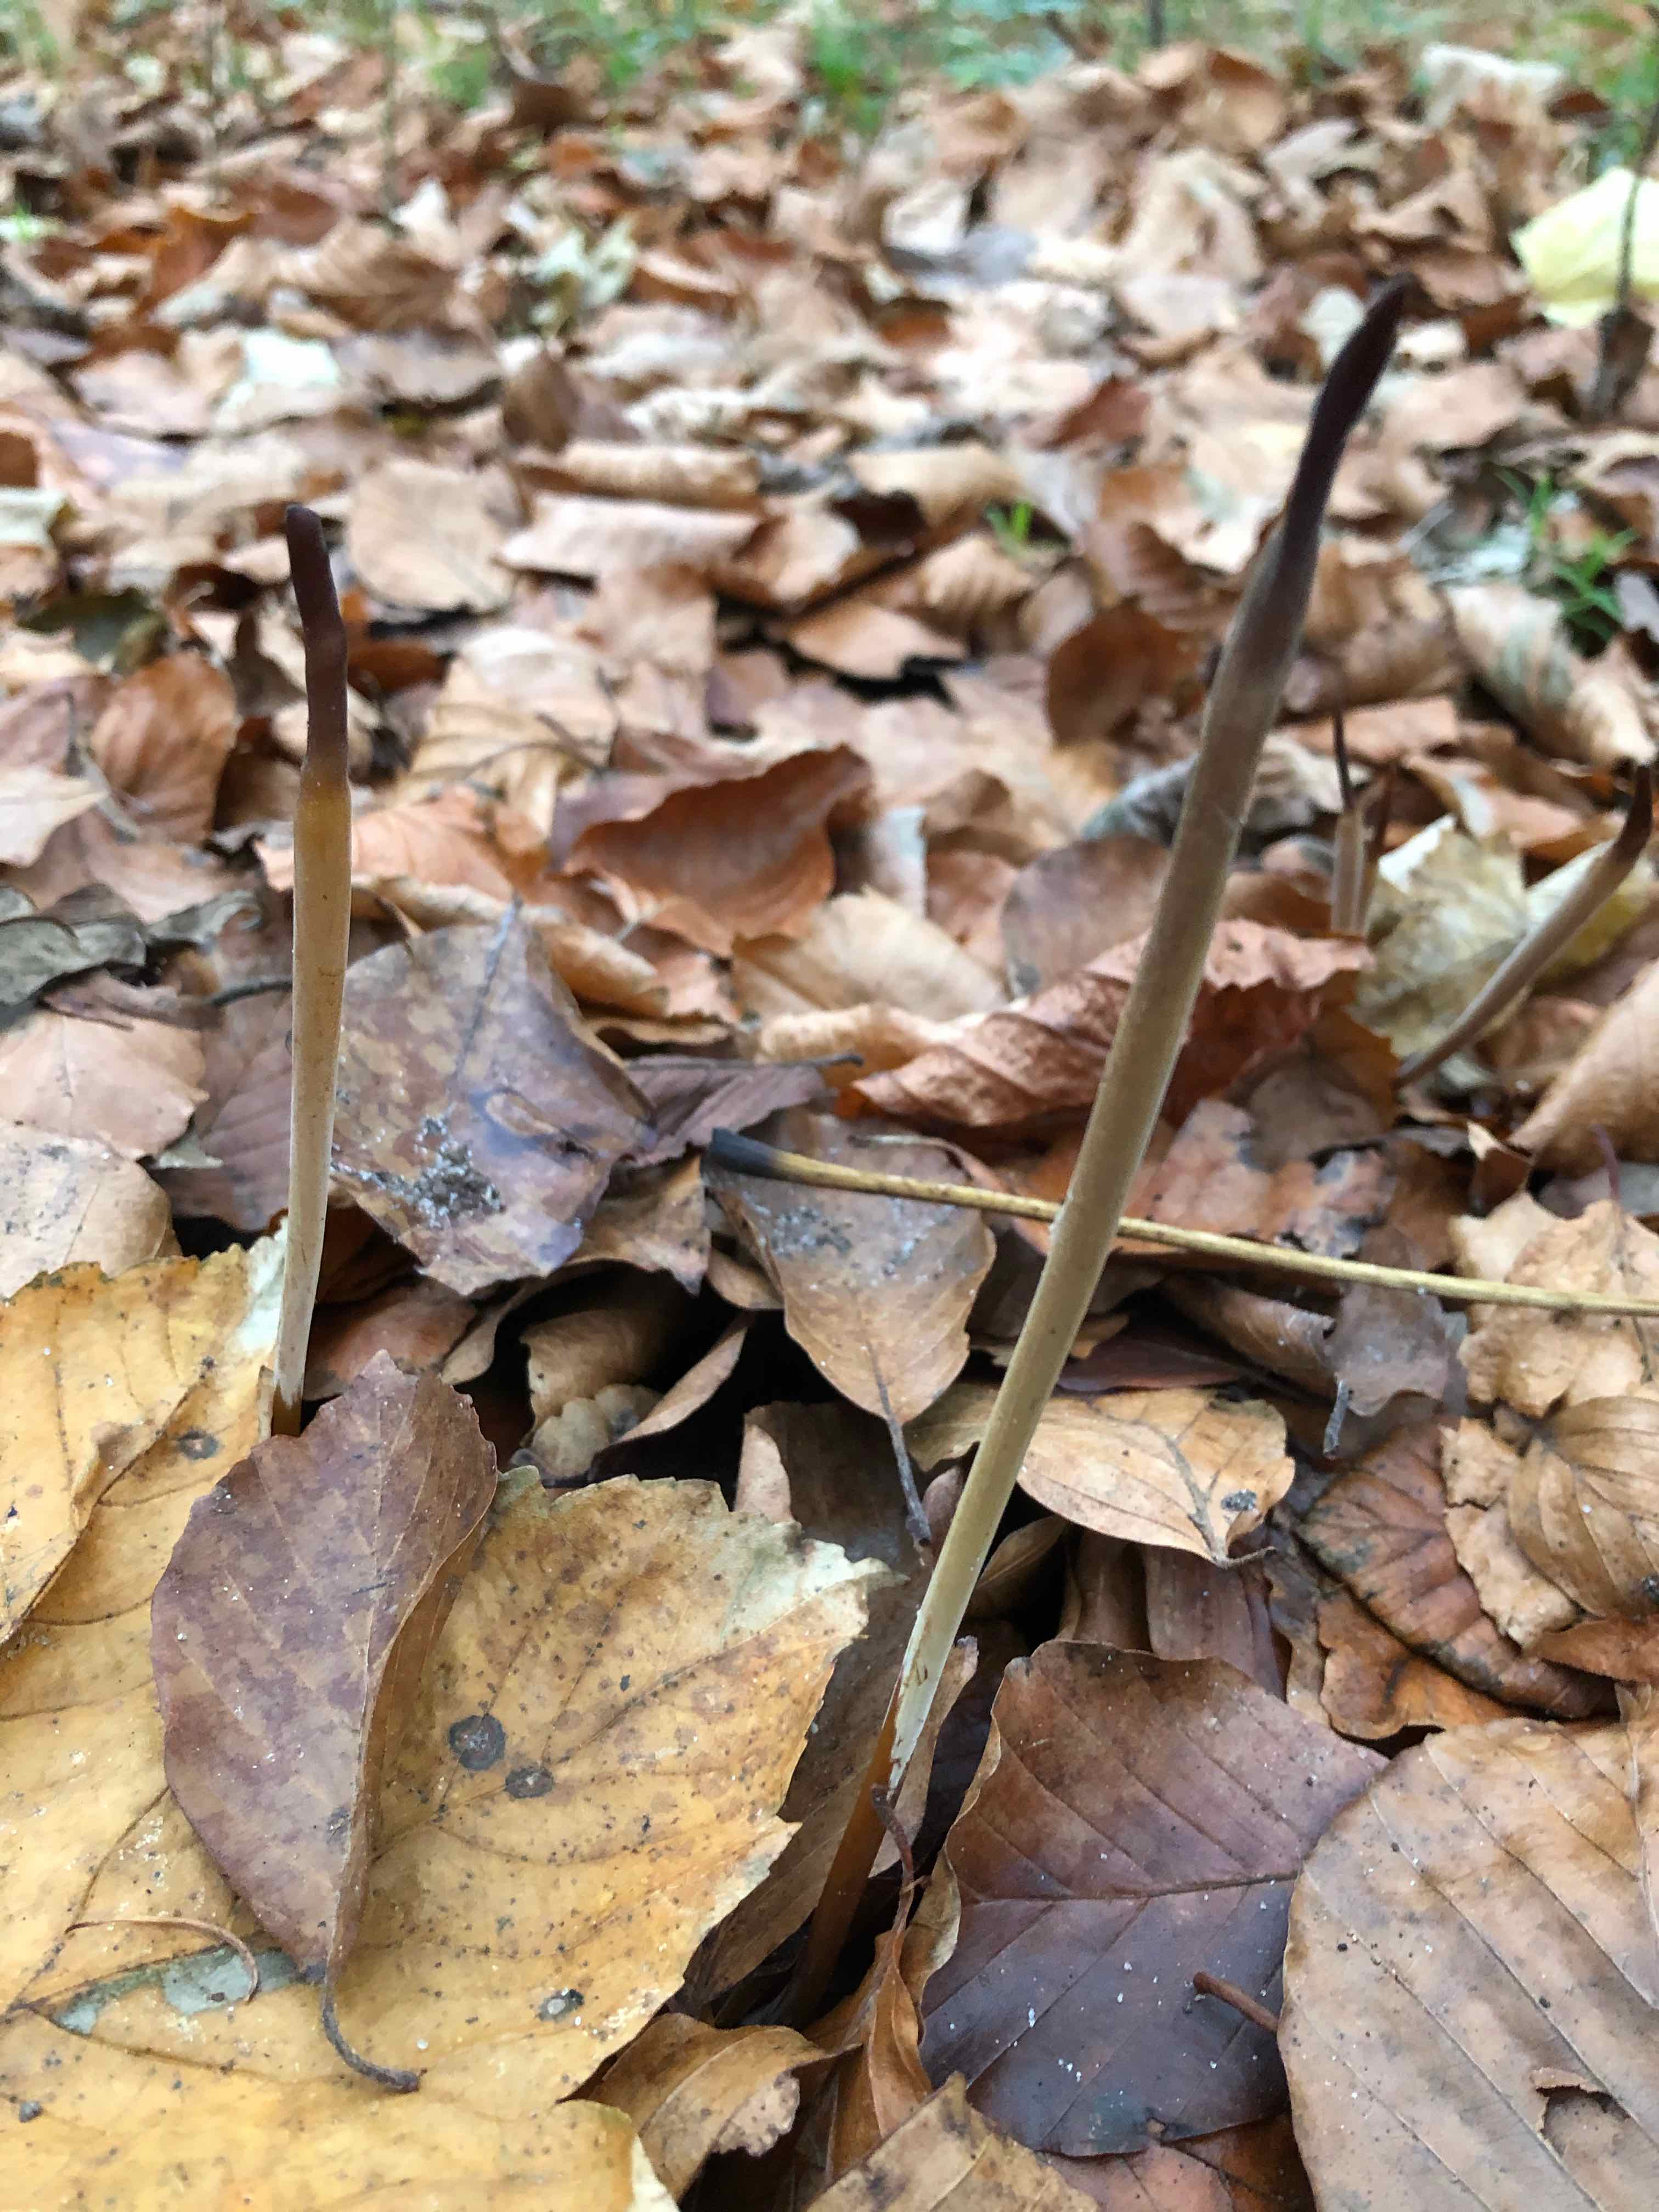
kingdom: Fungi
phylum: Basidiomycota
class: Agaricomycetes
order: Agaricales
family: Typhulaceae
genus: Typhula
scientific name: Typhula fistulosa
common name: pibet rørkølle
